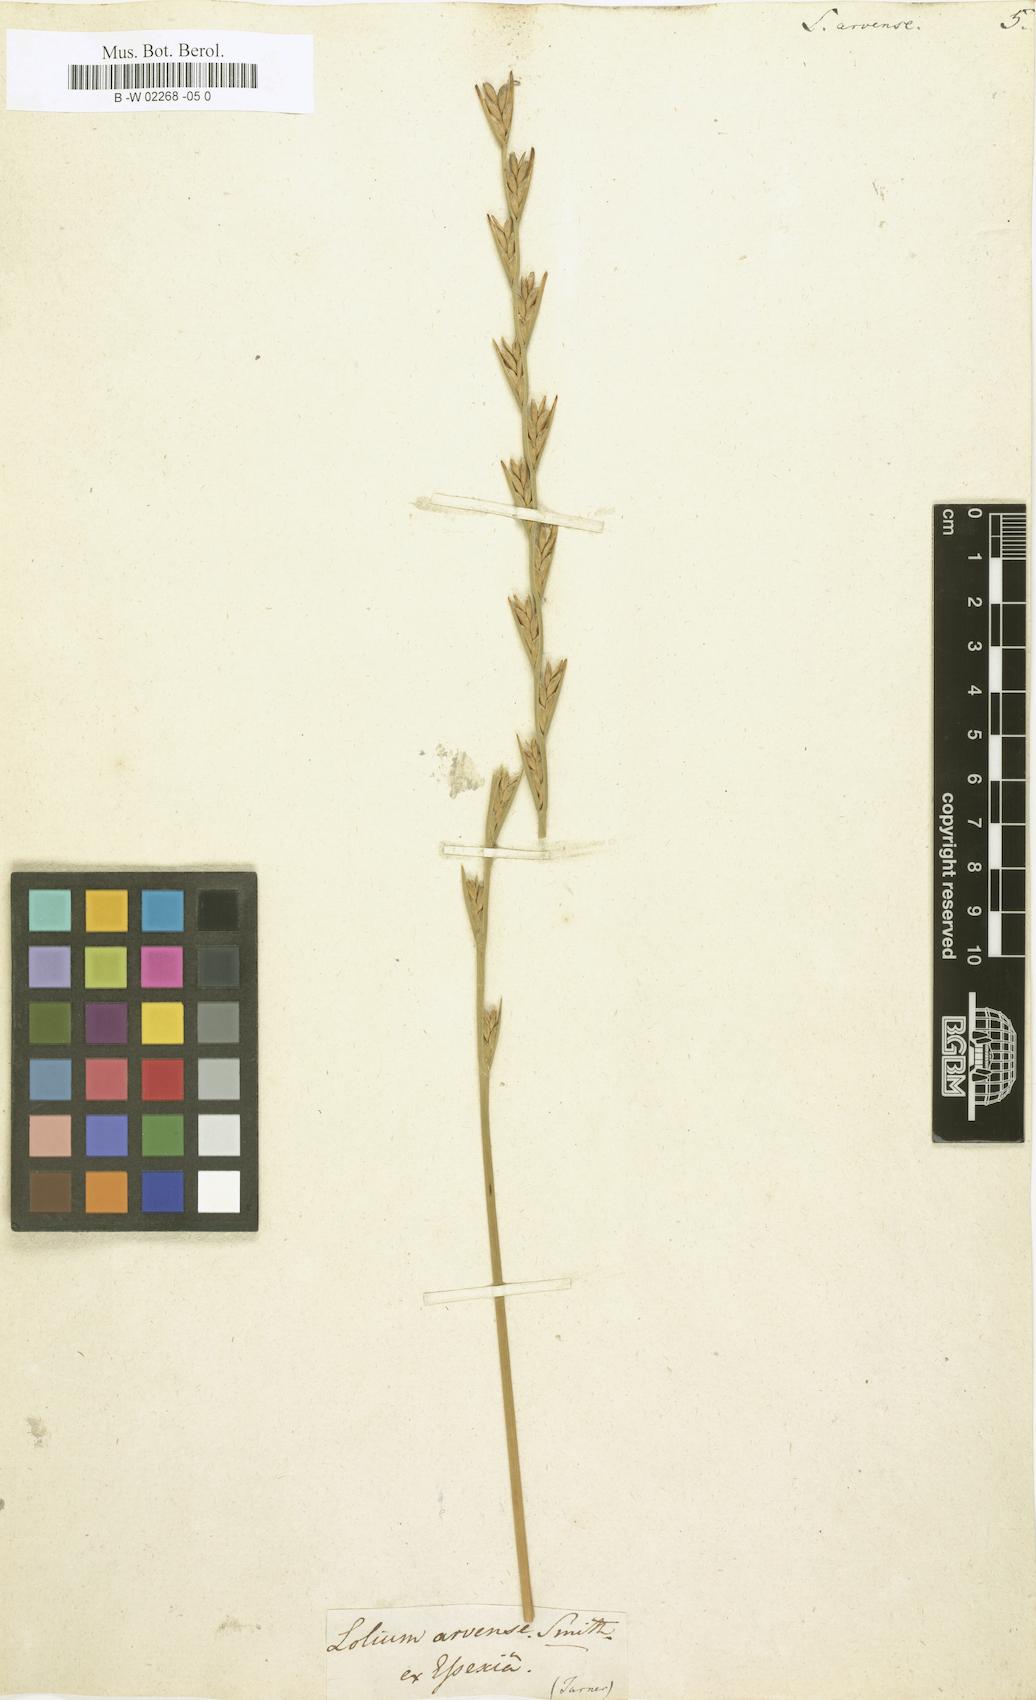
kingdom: Plantae
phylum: Tracheophyta
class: Liliopsida
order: Poales
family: Poaceae
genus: Lolium
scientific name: Lolium
